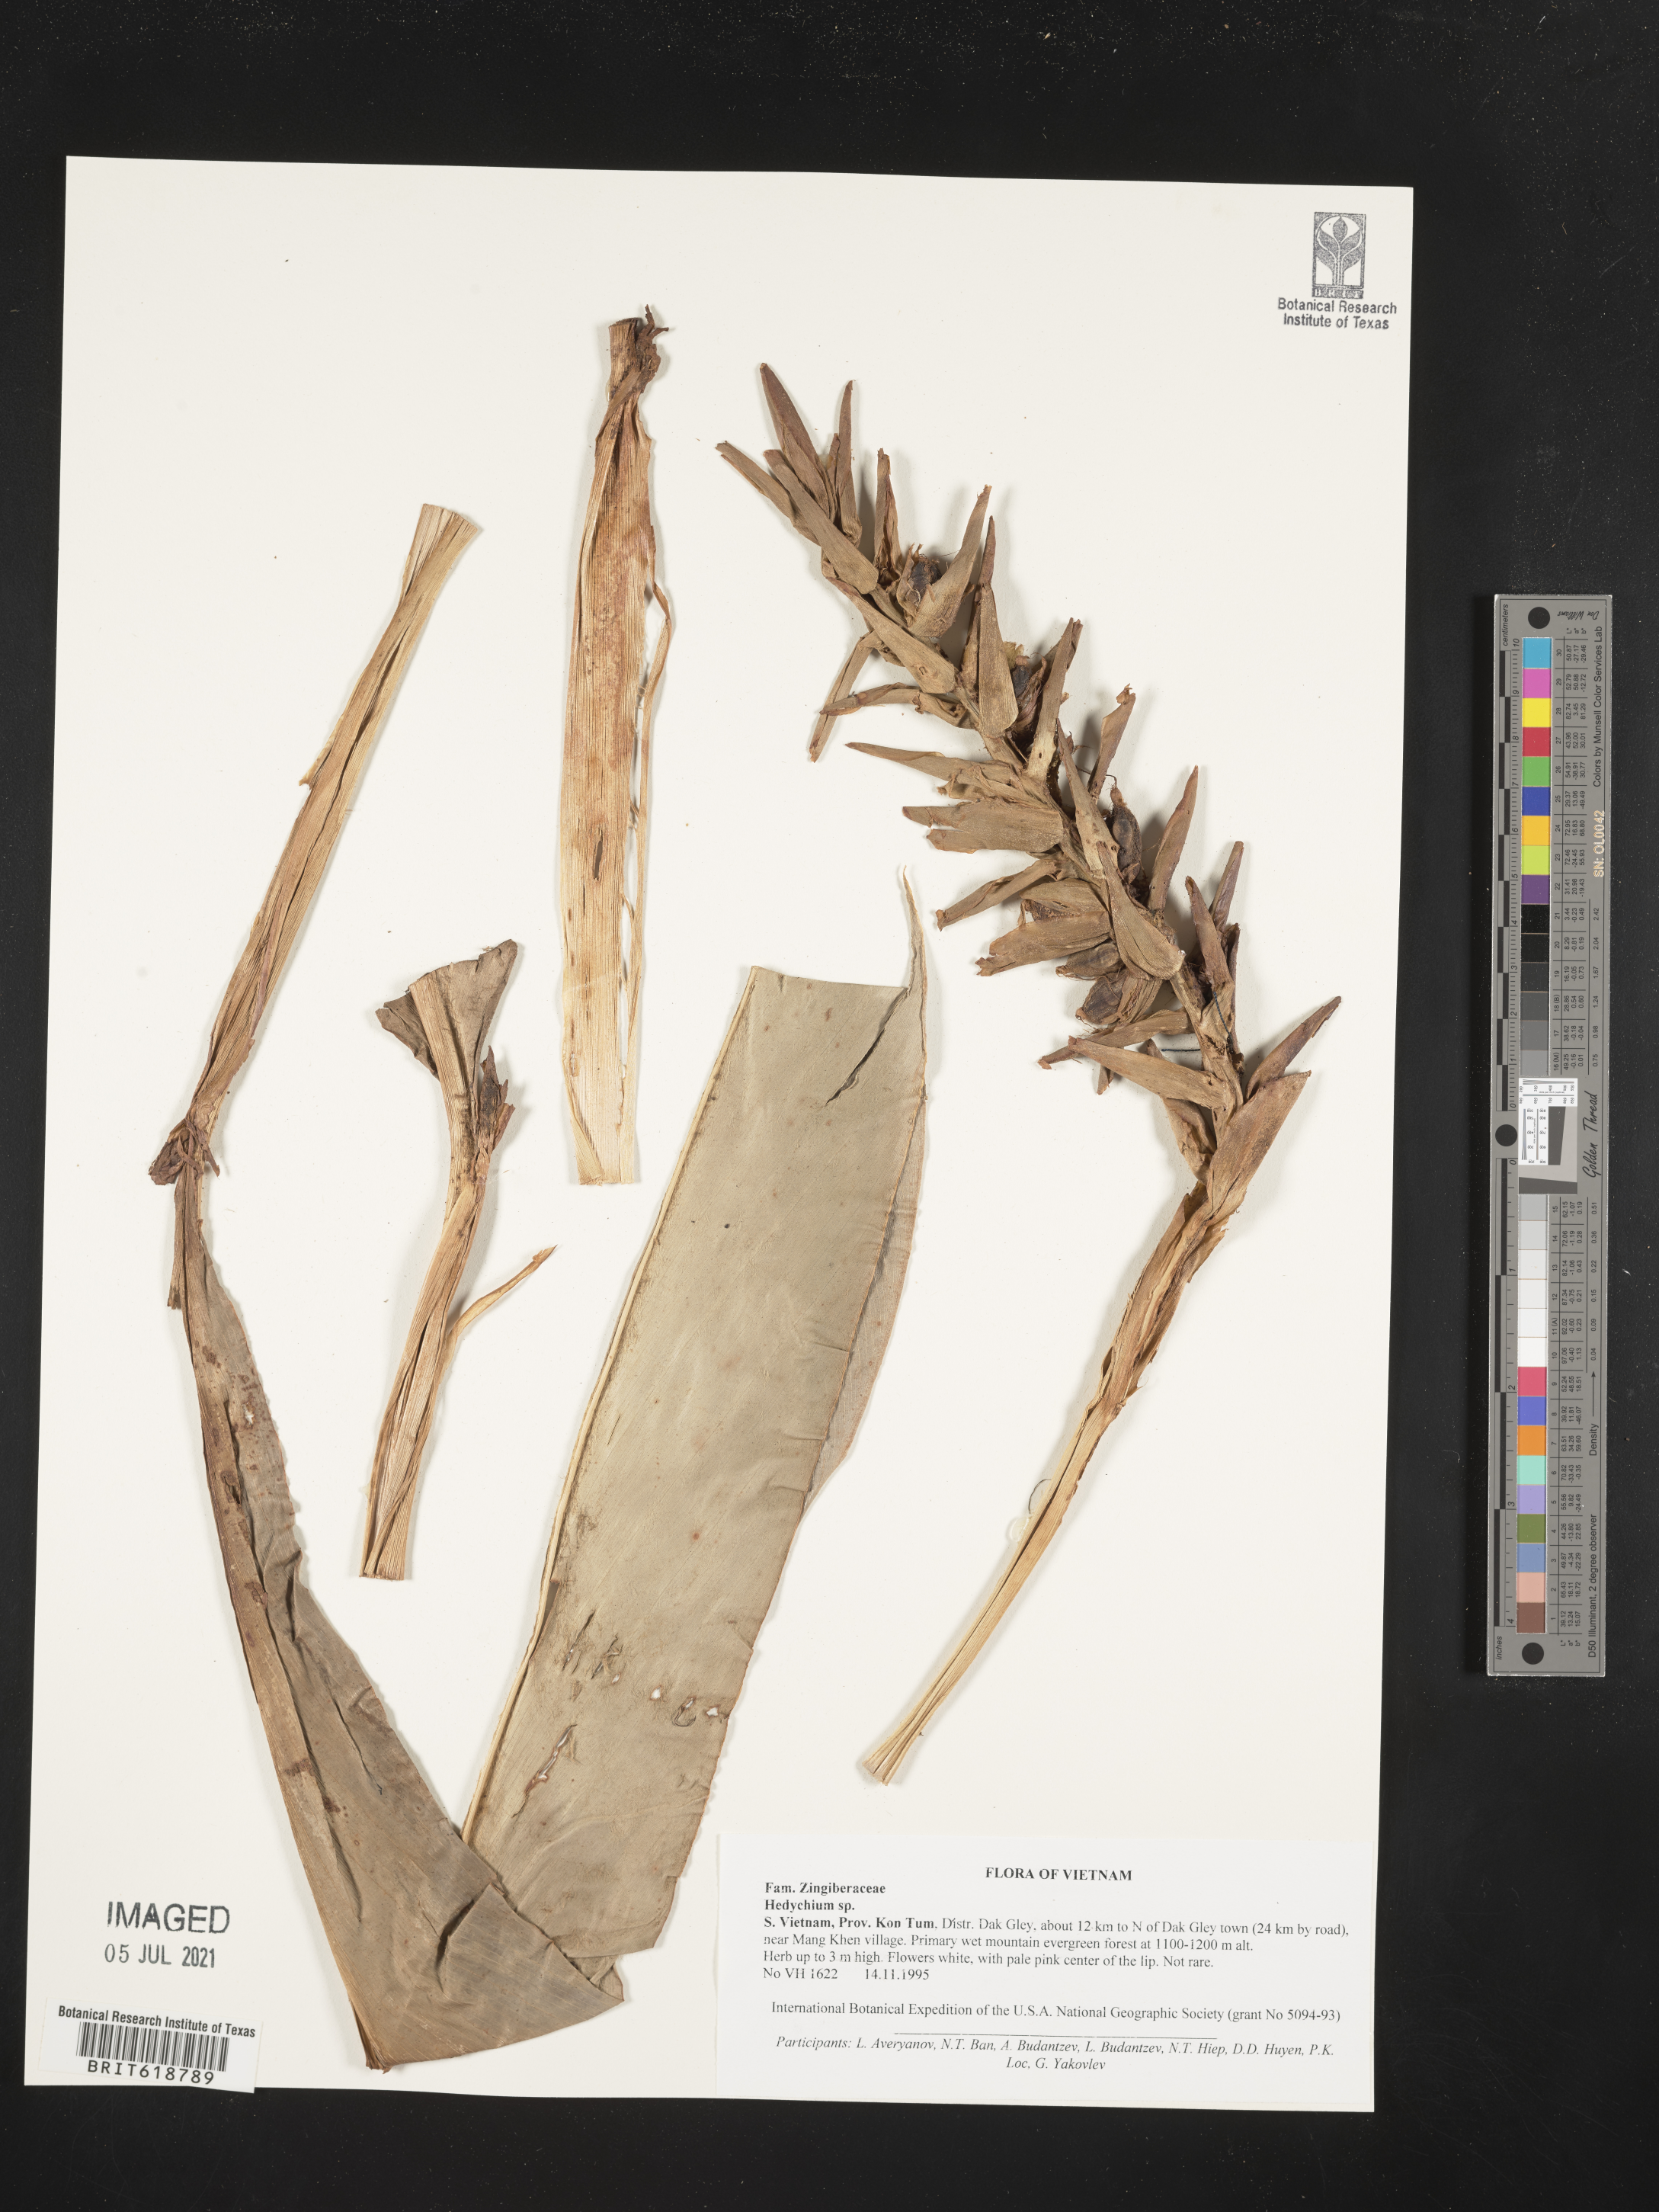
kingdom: Plantae
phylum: Tracheophyta
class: Liliopsida
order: Zingiberales
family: Zingiberaceae
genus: Hedychium
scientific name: Hedychium
